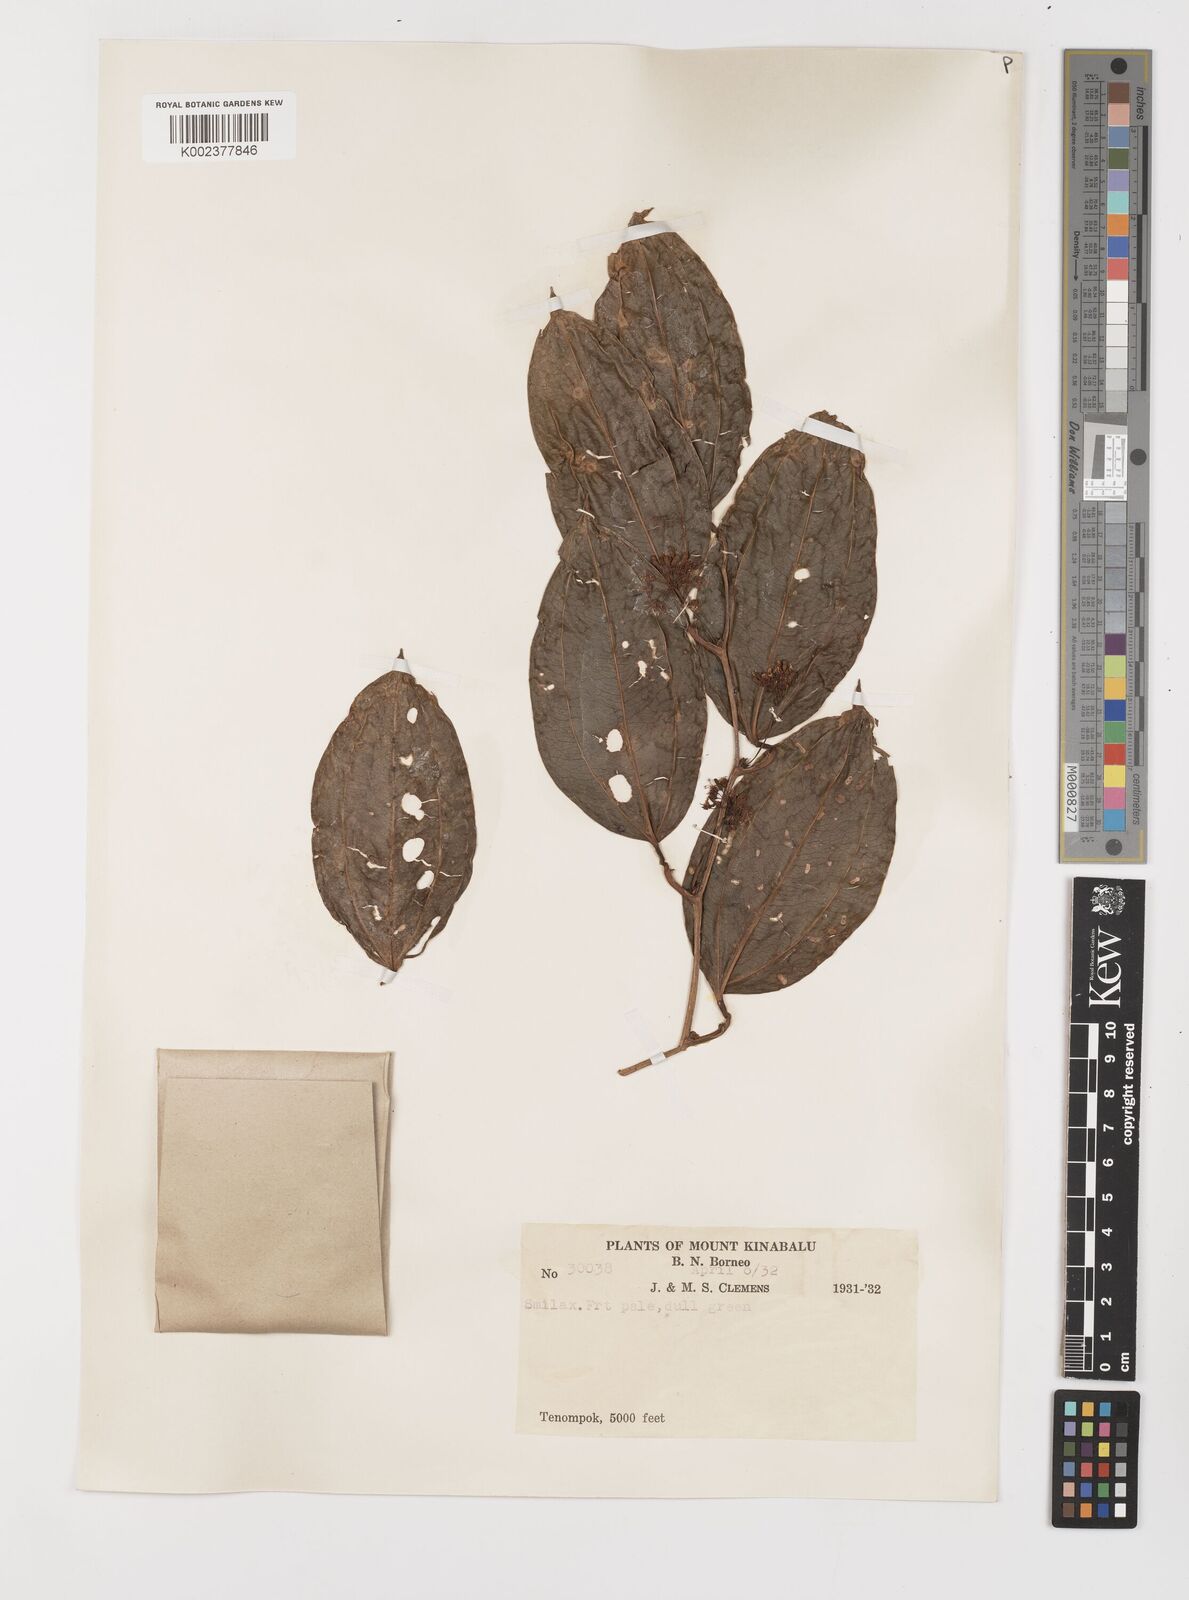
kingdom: Plantae
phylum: Tracheophyta
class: Liliopsida
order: Liliales
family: Smilacaceae
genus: Smilax
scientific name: Smilax
